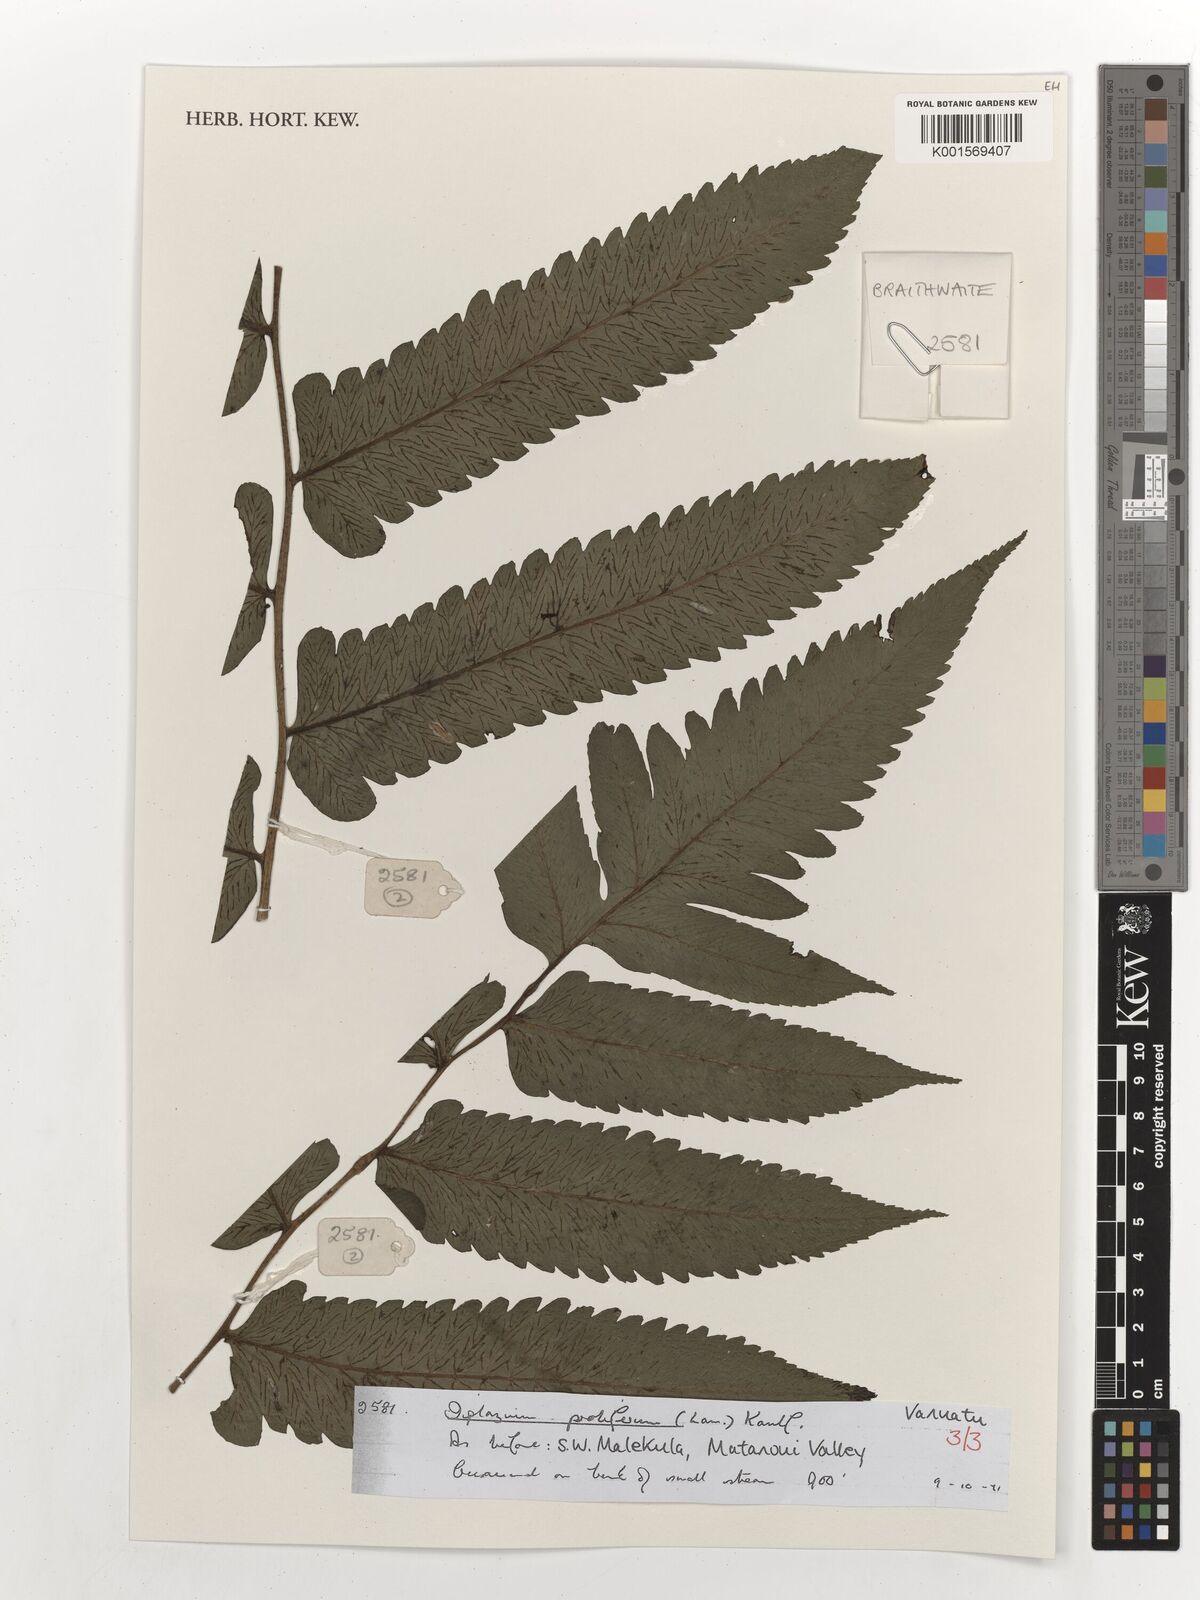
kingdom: Plantae
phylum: Tracheophyta
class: Polypodiopsida
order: Polypodiales
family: Athyriaceae
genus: Diplazium
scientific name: Diplazium proliferum
